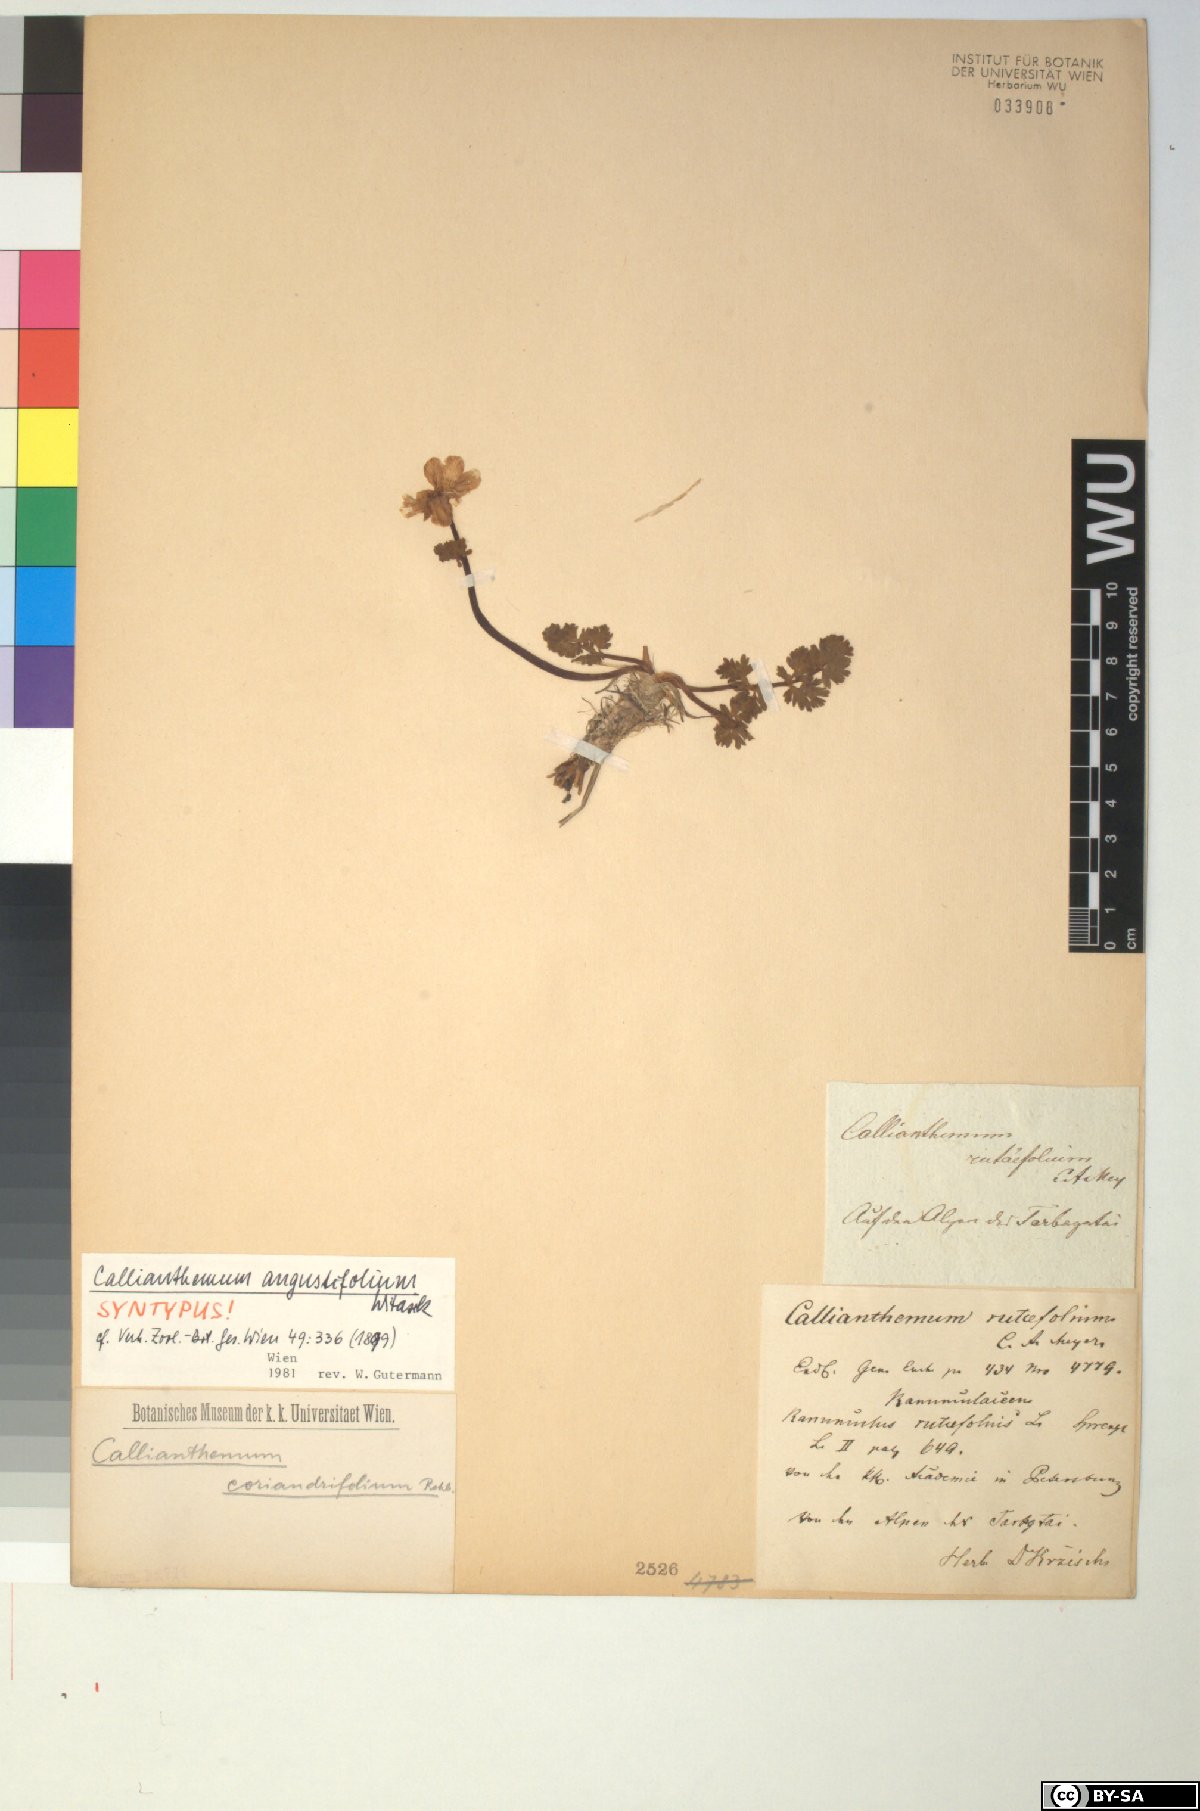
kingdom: Plantae
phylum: Tracheophyta
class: Magnoliopsida
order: Ranunculales
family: Ranunculaceae
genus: Callianthemum
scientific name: Callianthemum angustifolium
